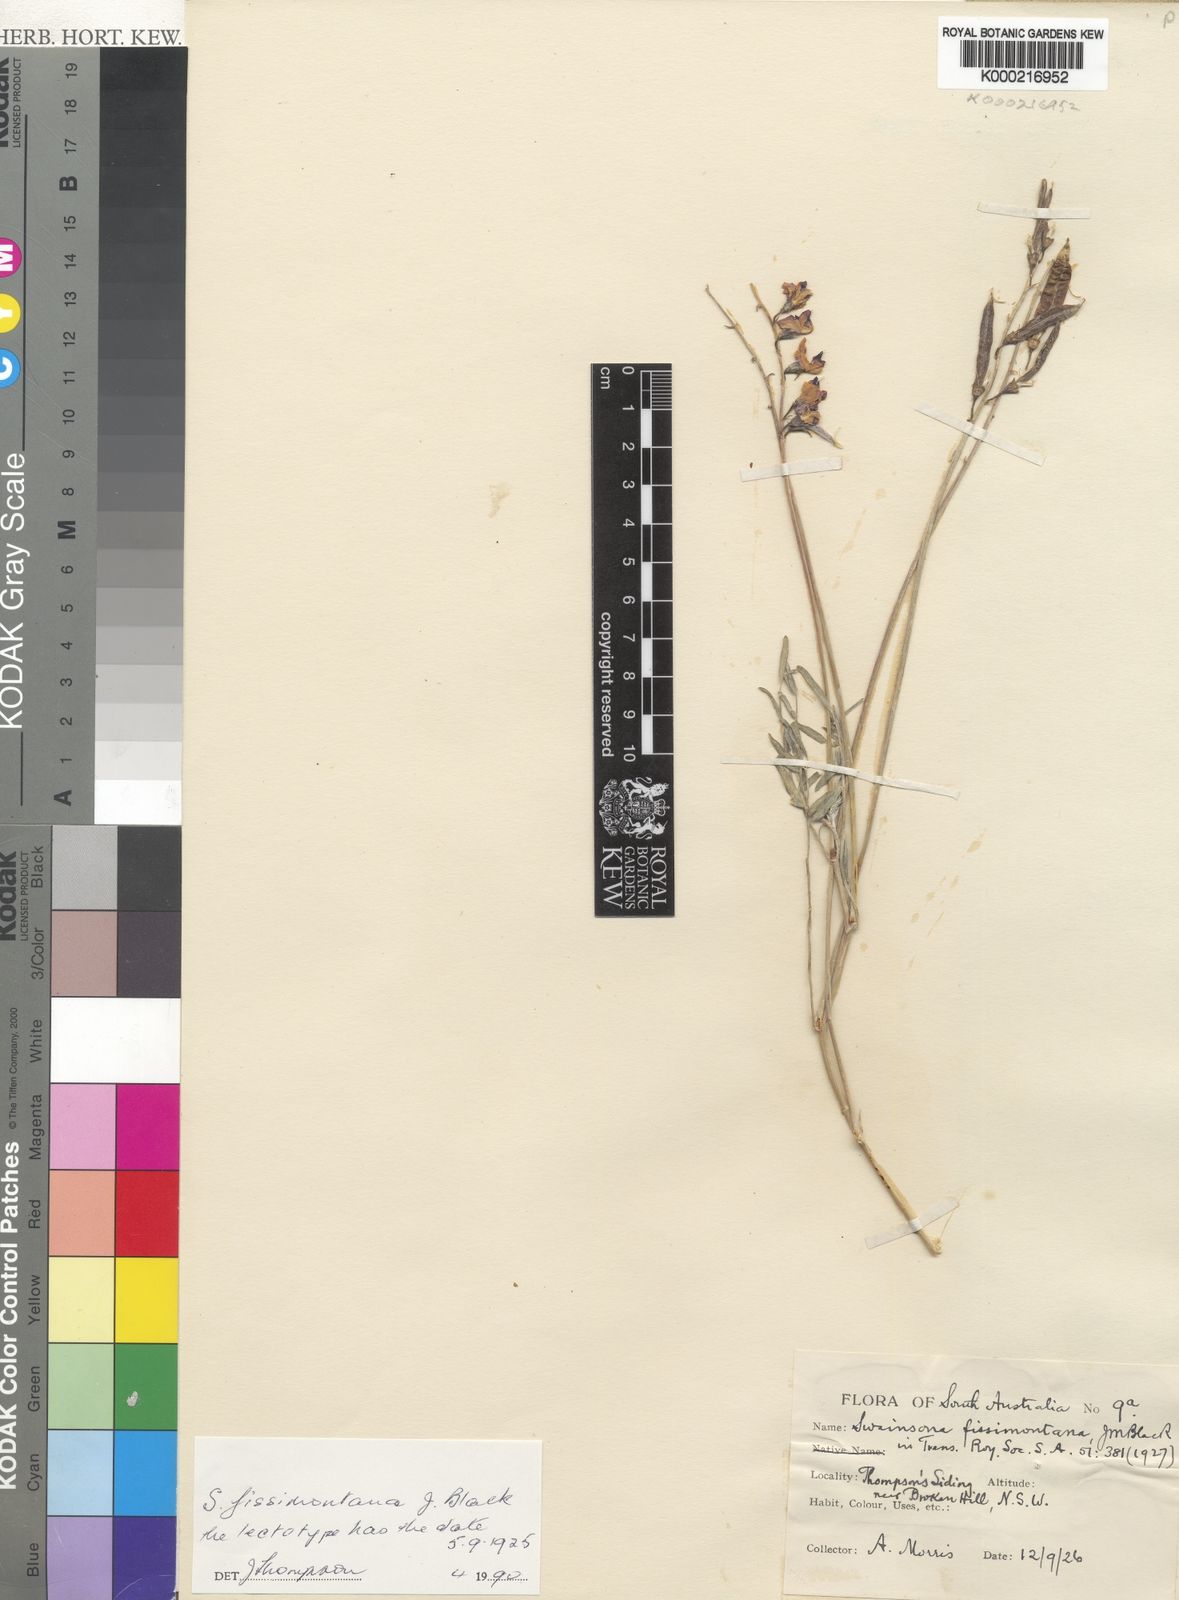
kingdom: Plantae
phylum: Tracheophyta
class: Magnoliopsida
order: Fabales
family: Fabaceae
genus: Swainsona
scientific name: Swainsona fissimontana
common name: Broken hill-pea
